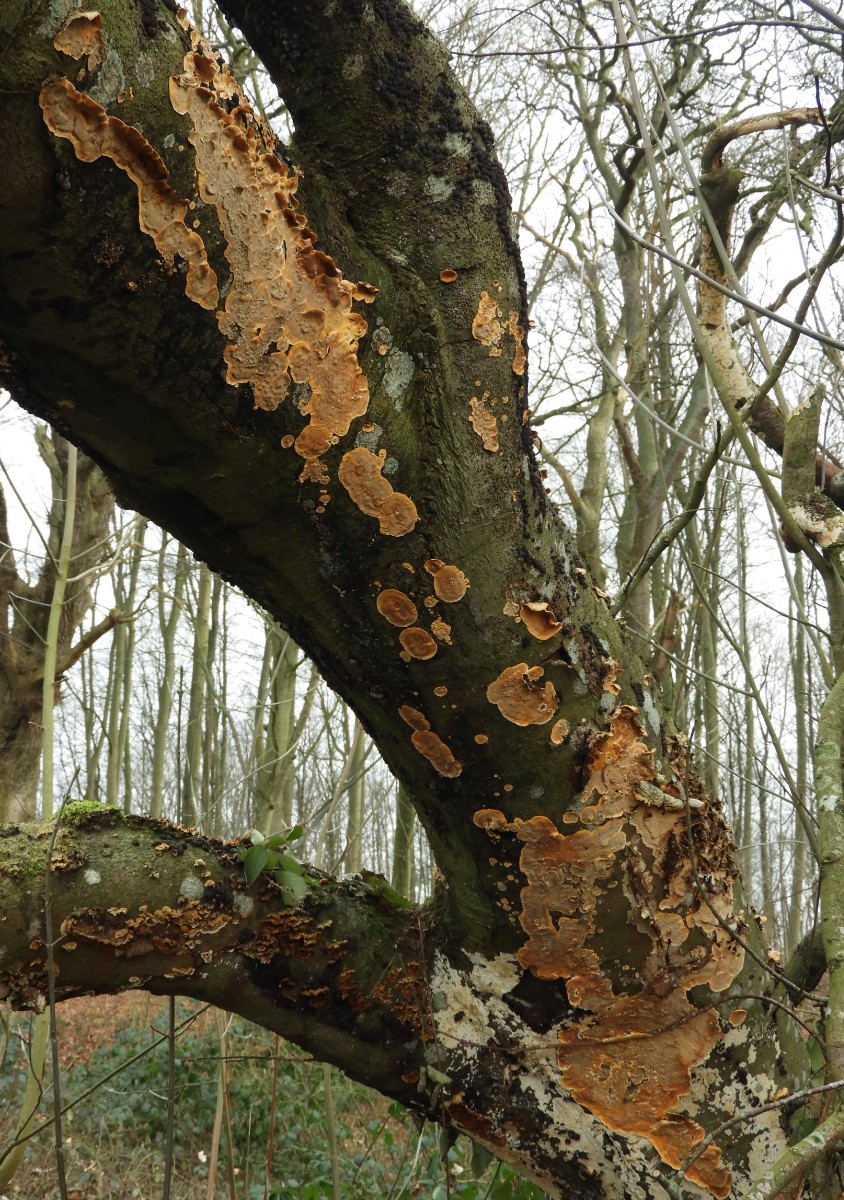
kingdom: Fungi
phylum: Basidiomycota
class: Agaricomycetes
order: Russulales
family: Stereaceae
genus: Stereum
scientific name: Stereum hirsutum
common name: håret lædersvamp
